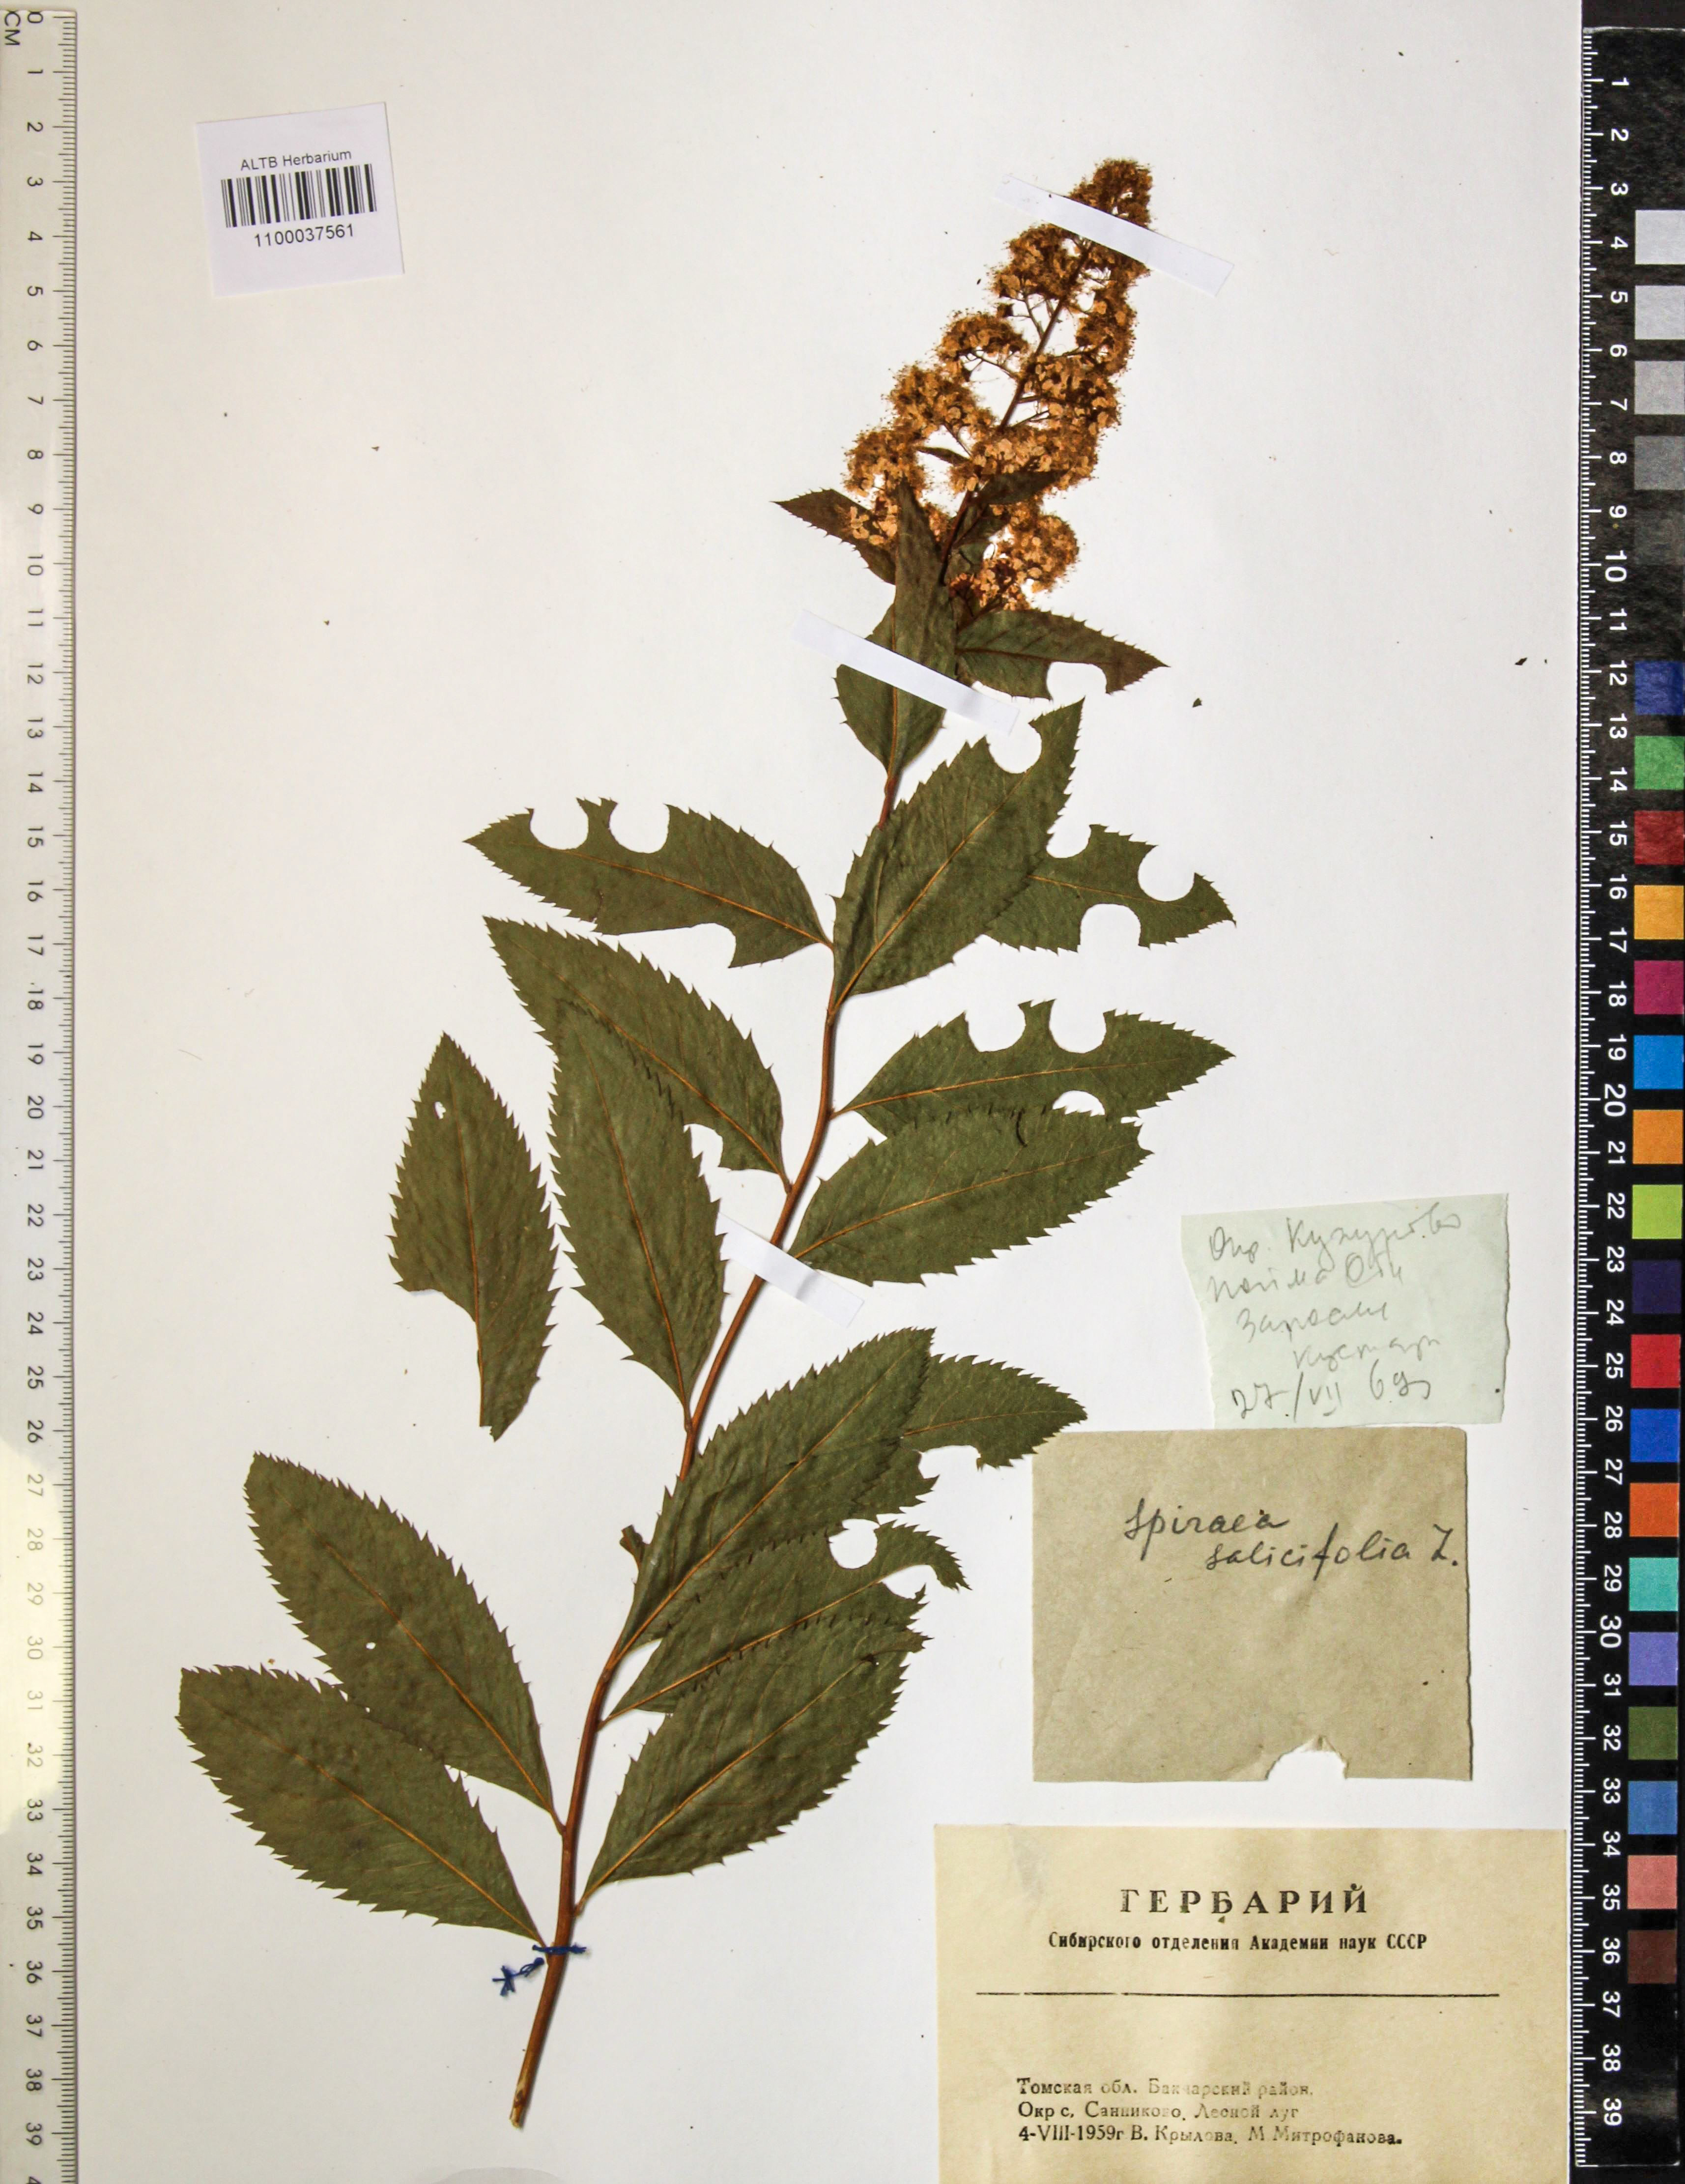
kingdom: Plantae
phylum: Tracheophyta
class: Magnoliopsida
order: Rosales
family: Rosaceae
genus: Spiraea
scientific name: Spiraea salicifolia
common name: Bridewort
